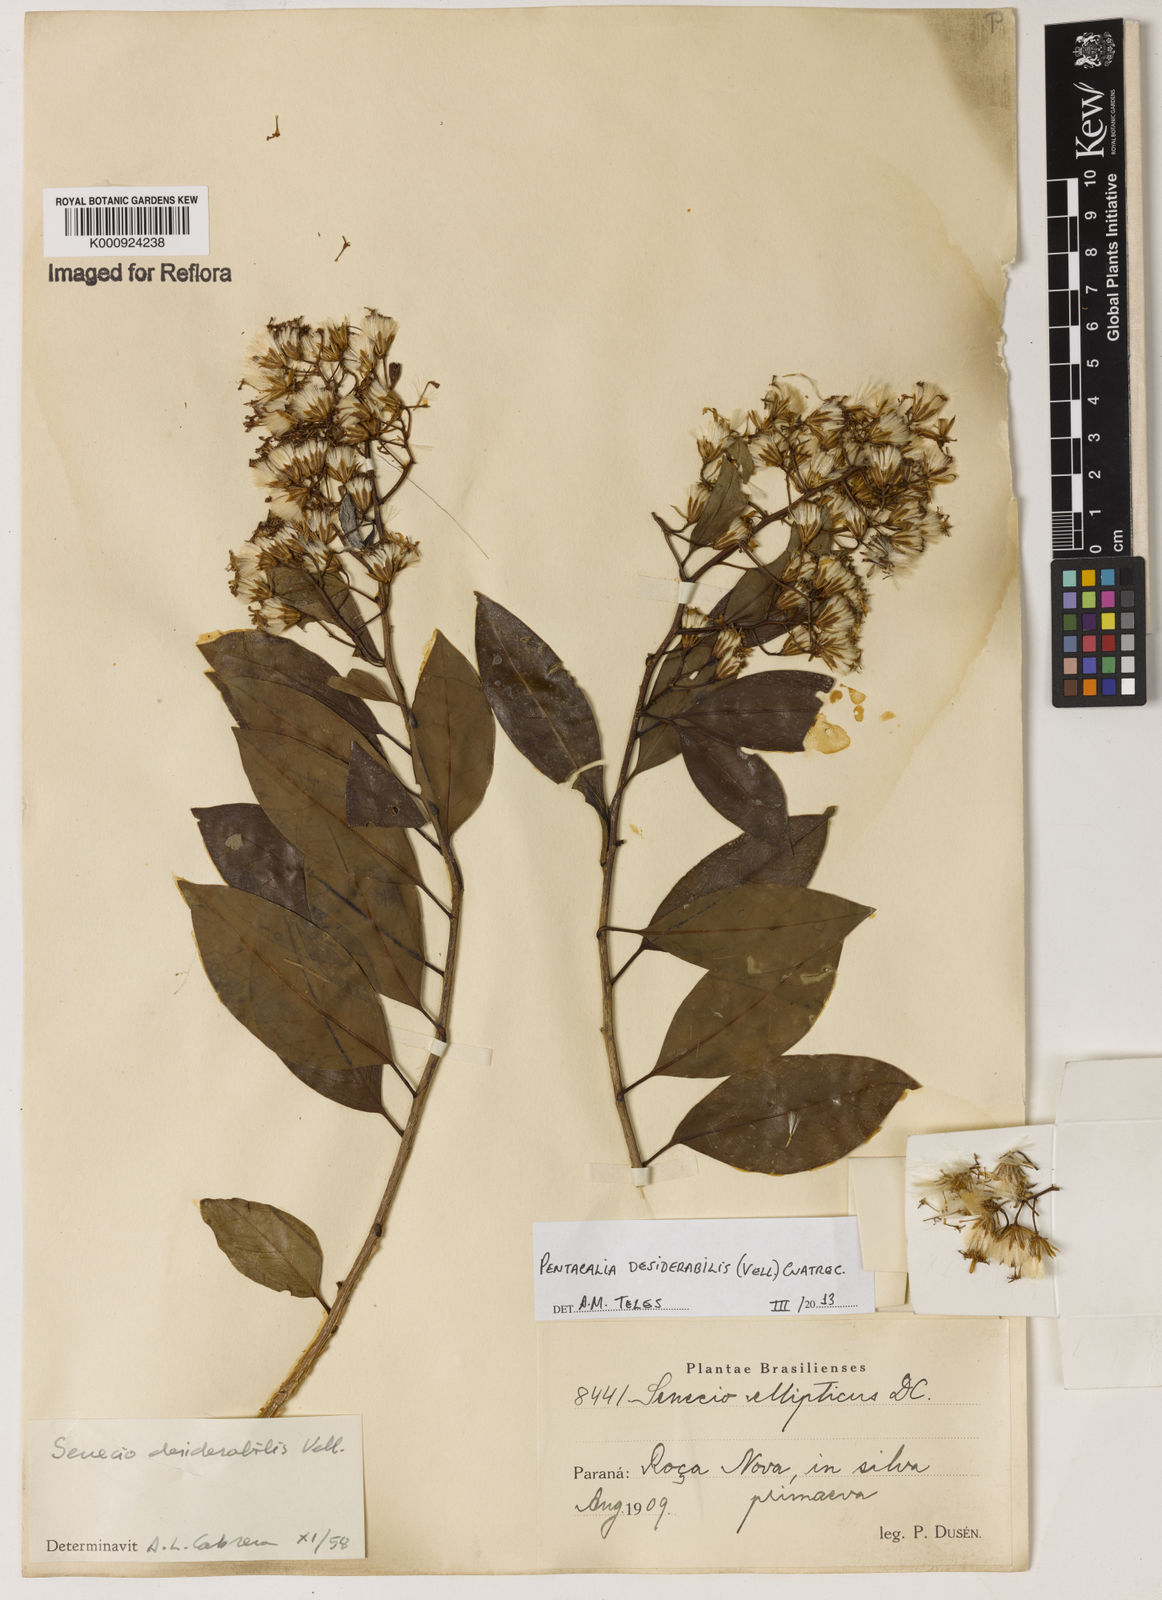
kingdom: Plantae
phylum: Tracheophyta
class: Magnoliopsida
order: Asterales
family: Asteraceae
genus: Pentacalia
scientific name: Pentacalia desiderabilis
